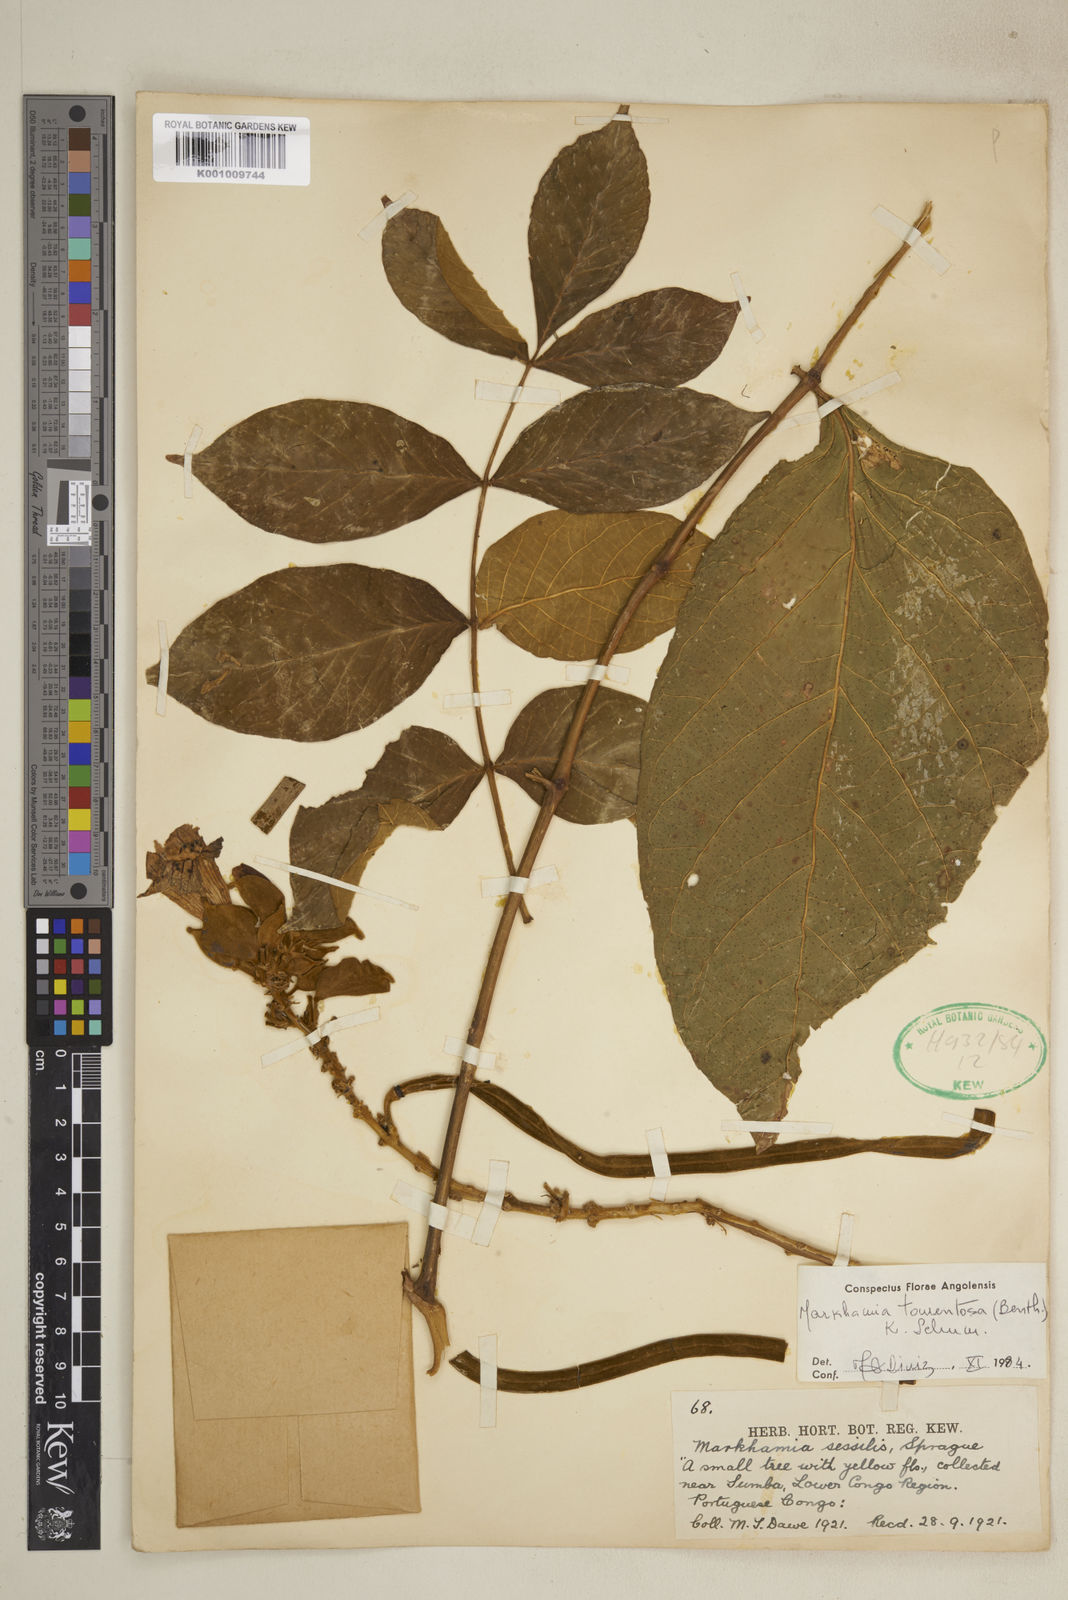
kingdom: Plantae
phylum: Tracheophyta
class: Magnoliopsida
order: Lamiales
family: Bignoniaceae
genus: Markhamia
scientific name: Markhamia tomentosa
